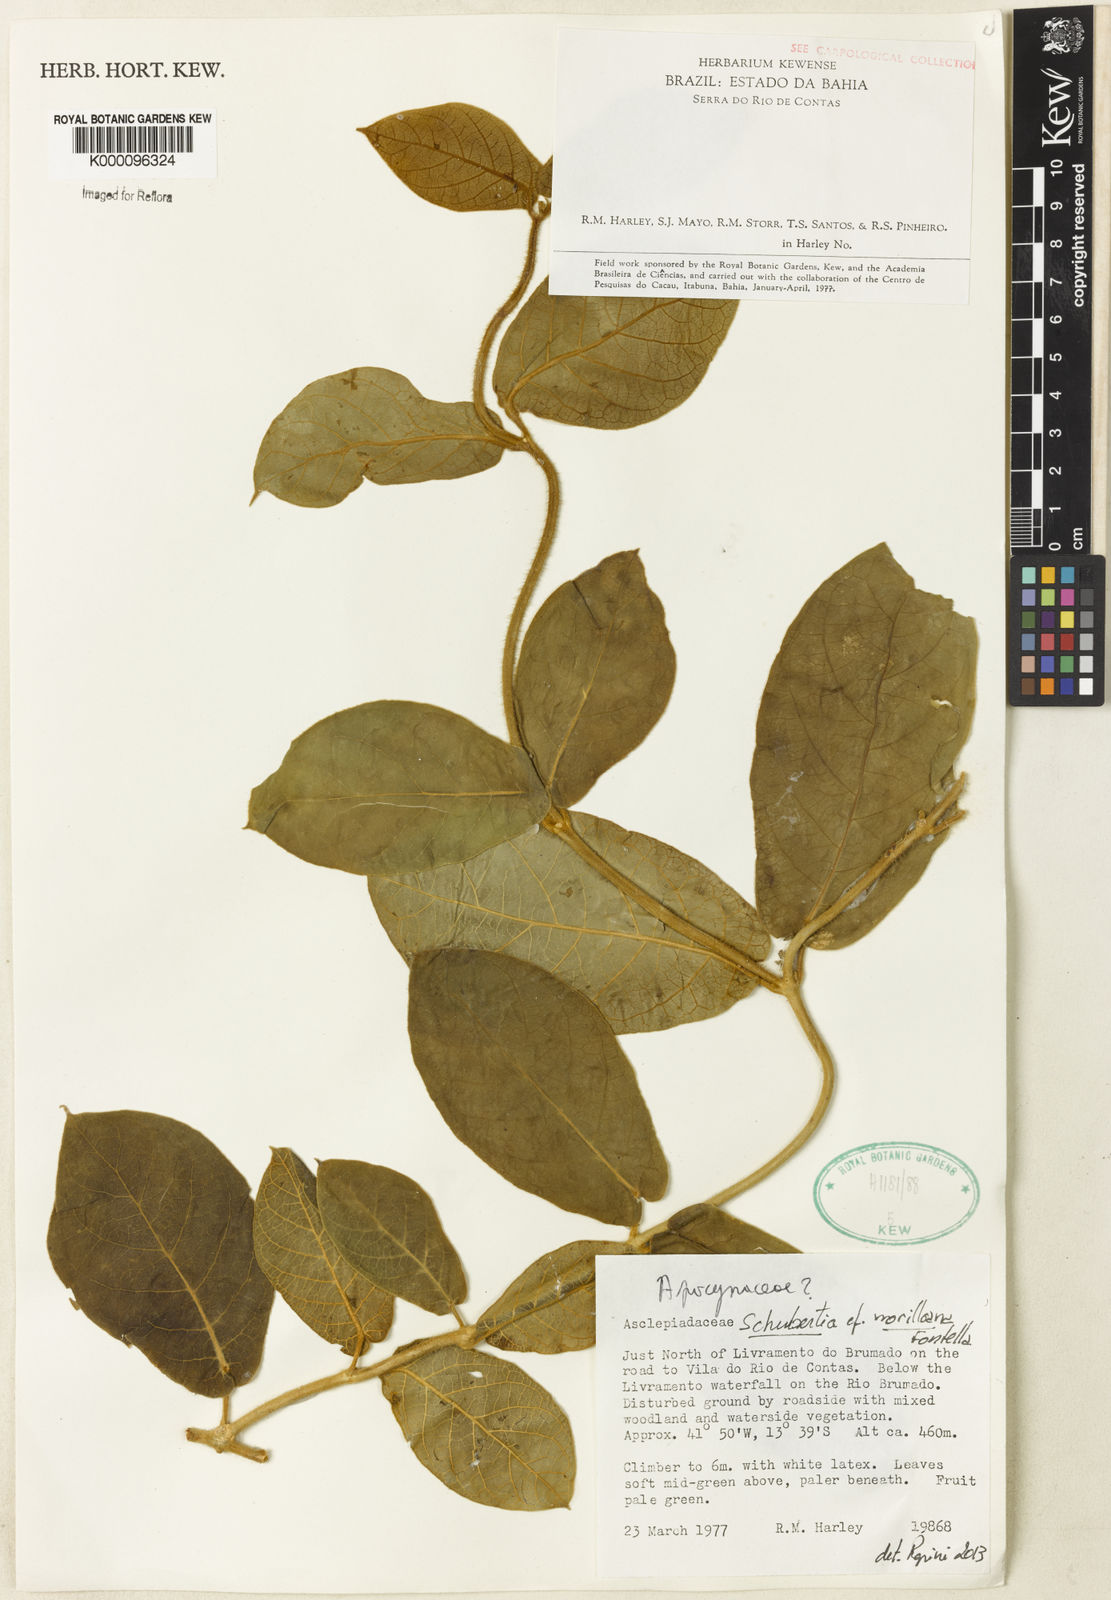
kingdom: Plantae
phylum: Tracheophyta
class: Magnoliopsida
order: Gentianales
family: Apocynaceae
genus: Schubertia
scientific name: Schubertia morilloana
